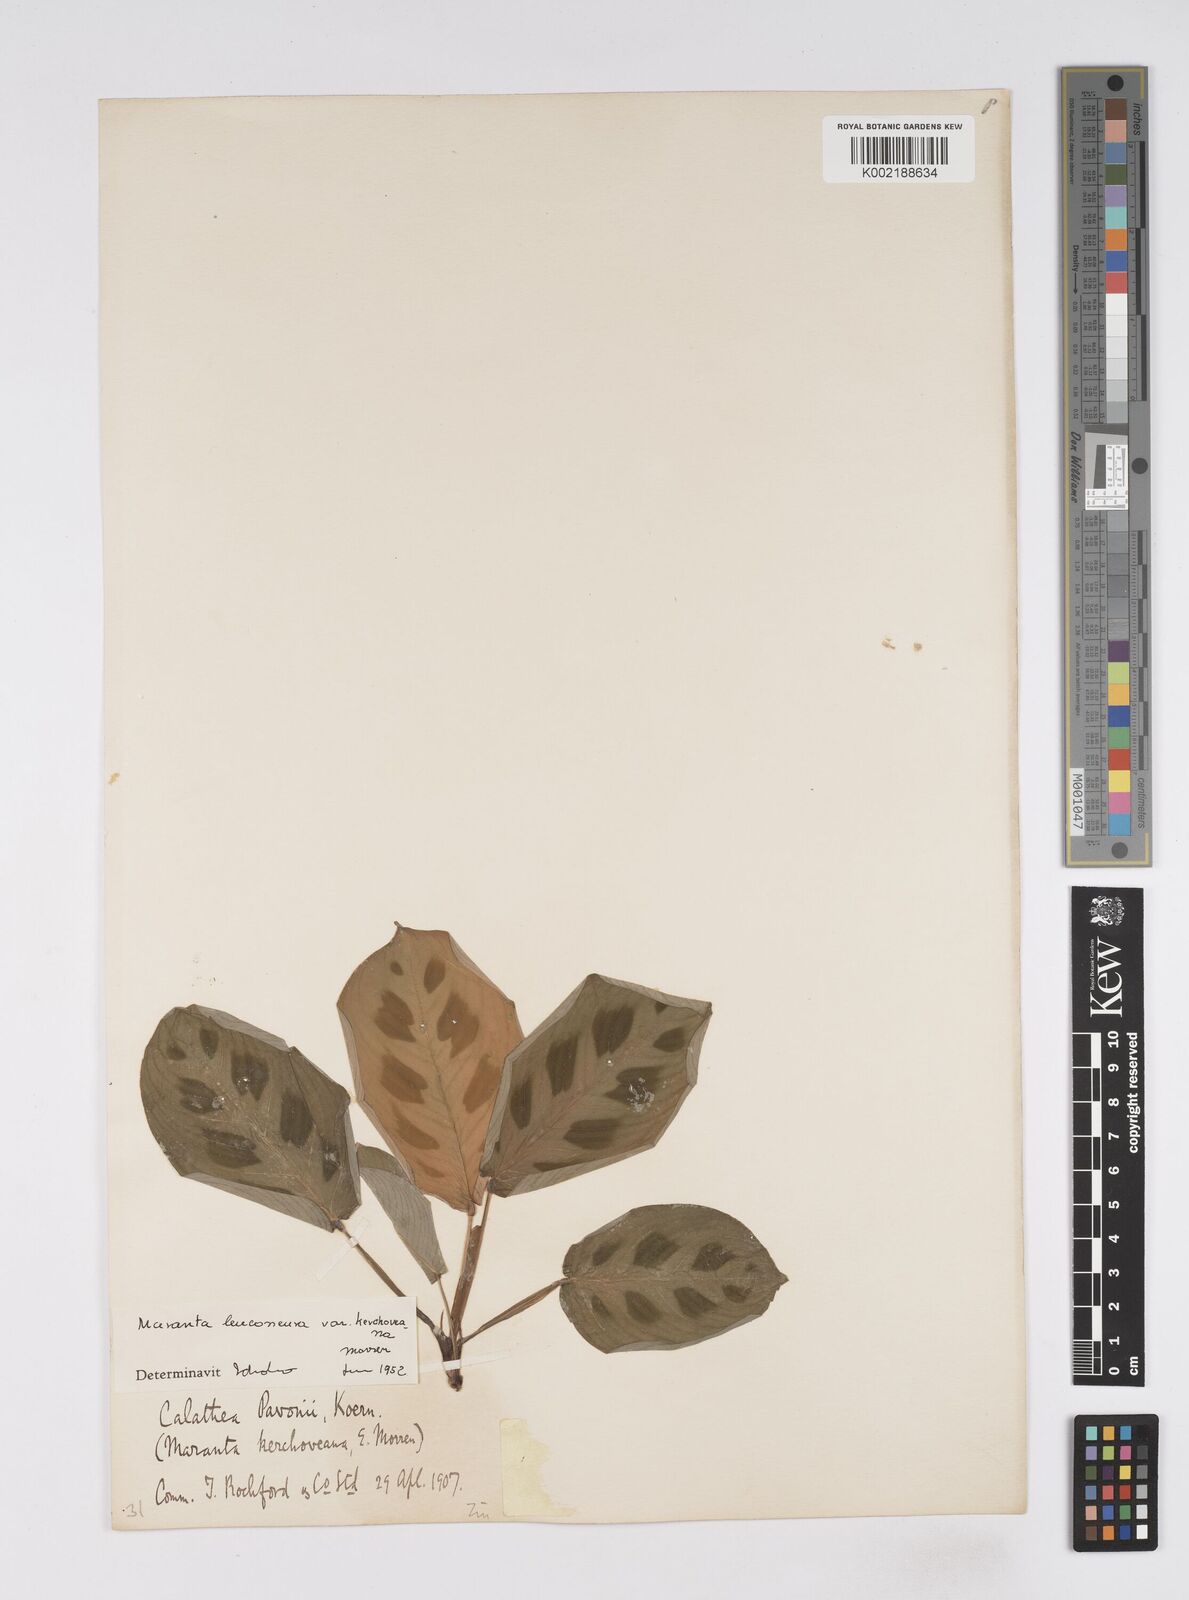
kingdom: Plantae
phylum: Tracheophyta
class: Liliopsida
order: Zingiberales
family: Marantaceae
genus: Maranta
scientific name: Maranta leuconeura
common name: Ten-commandments
